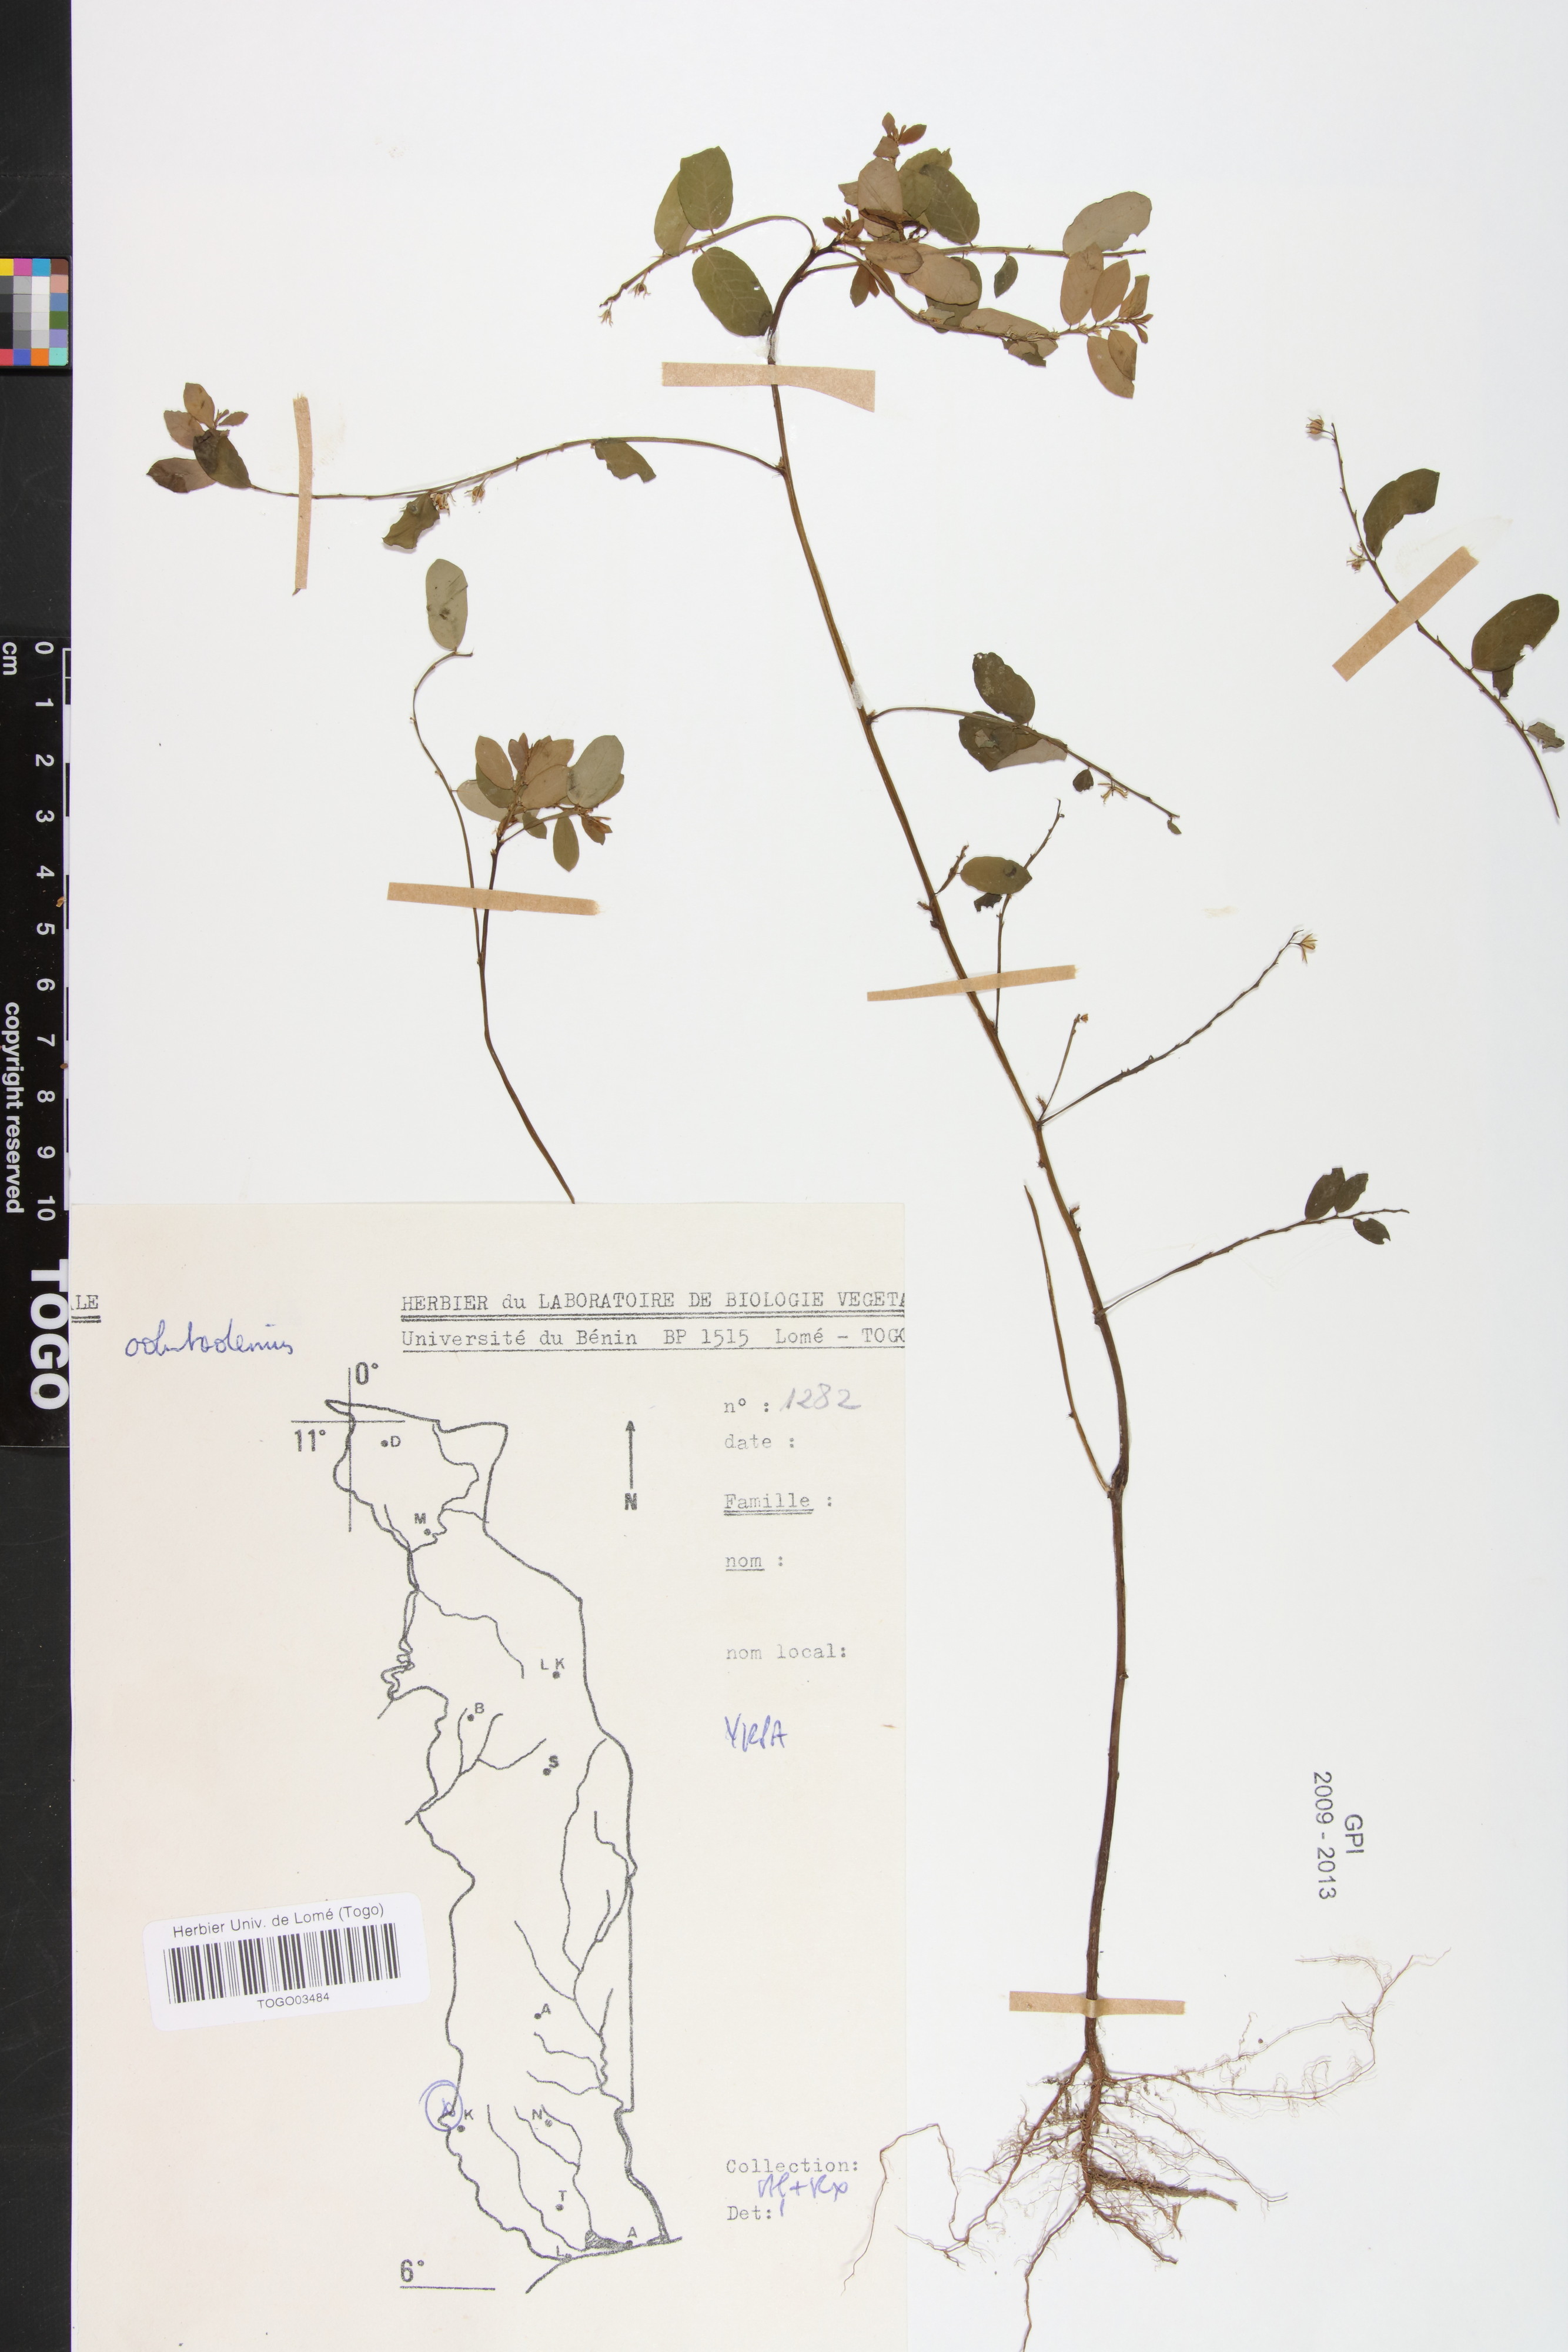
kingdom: Plantae
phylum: Tracheophyta
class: Magnoliopsida
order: Malpighiales
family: Phyllanthaceae
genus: Phyllanthus
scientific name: Phyllanthus odontadenius
